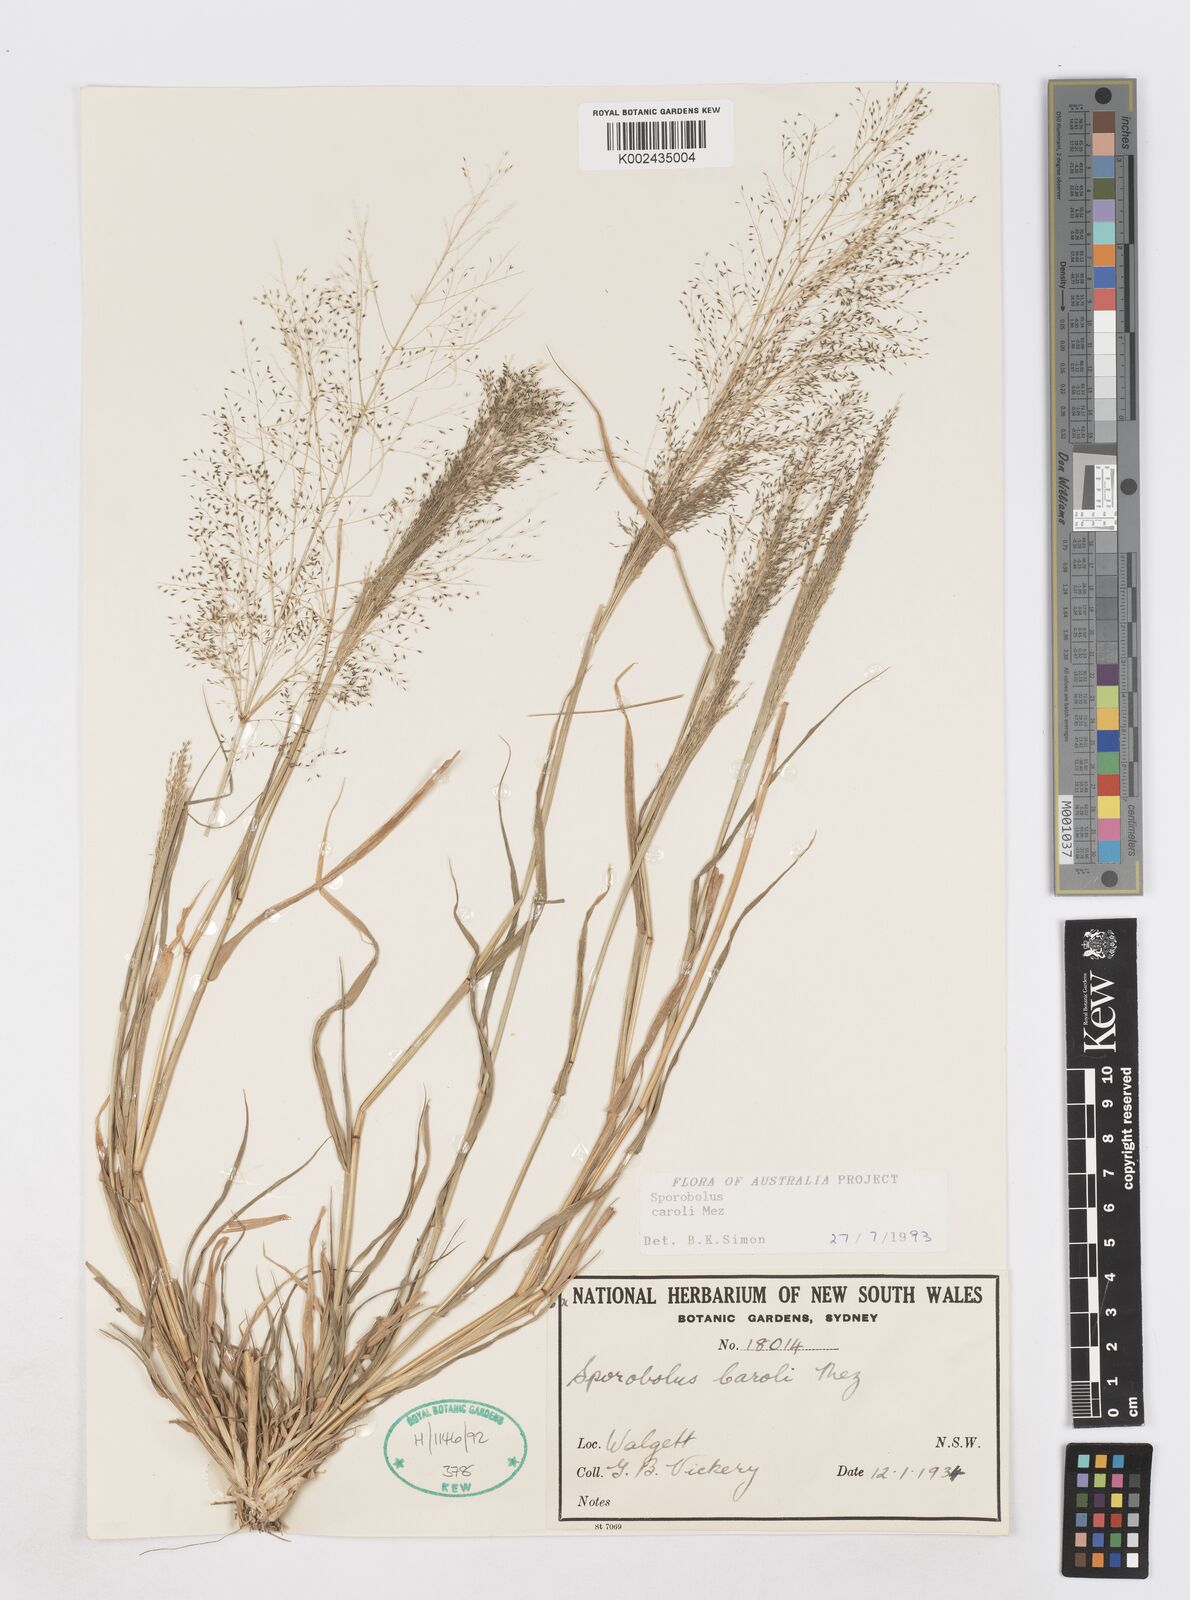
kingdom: Plantae
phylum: Tracheophyta
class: Liliopsida
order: Poales
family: Poaceae
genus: Sporobolus
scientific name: Sporobolus caroli
